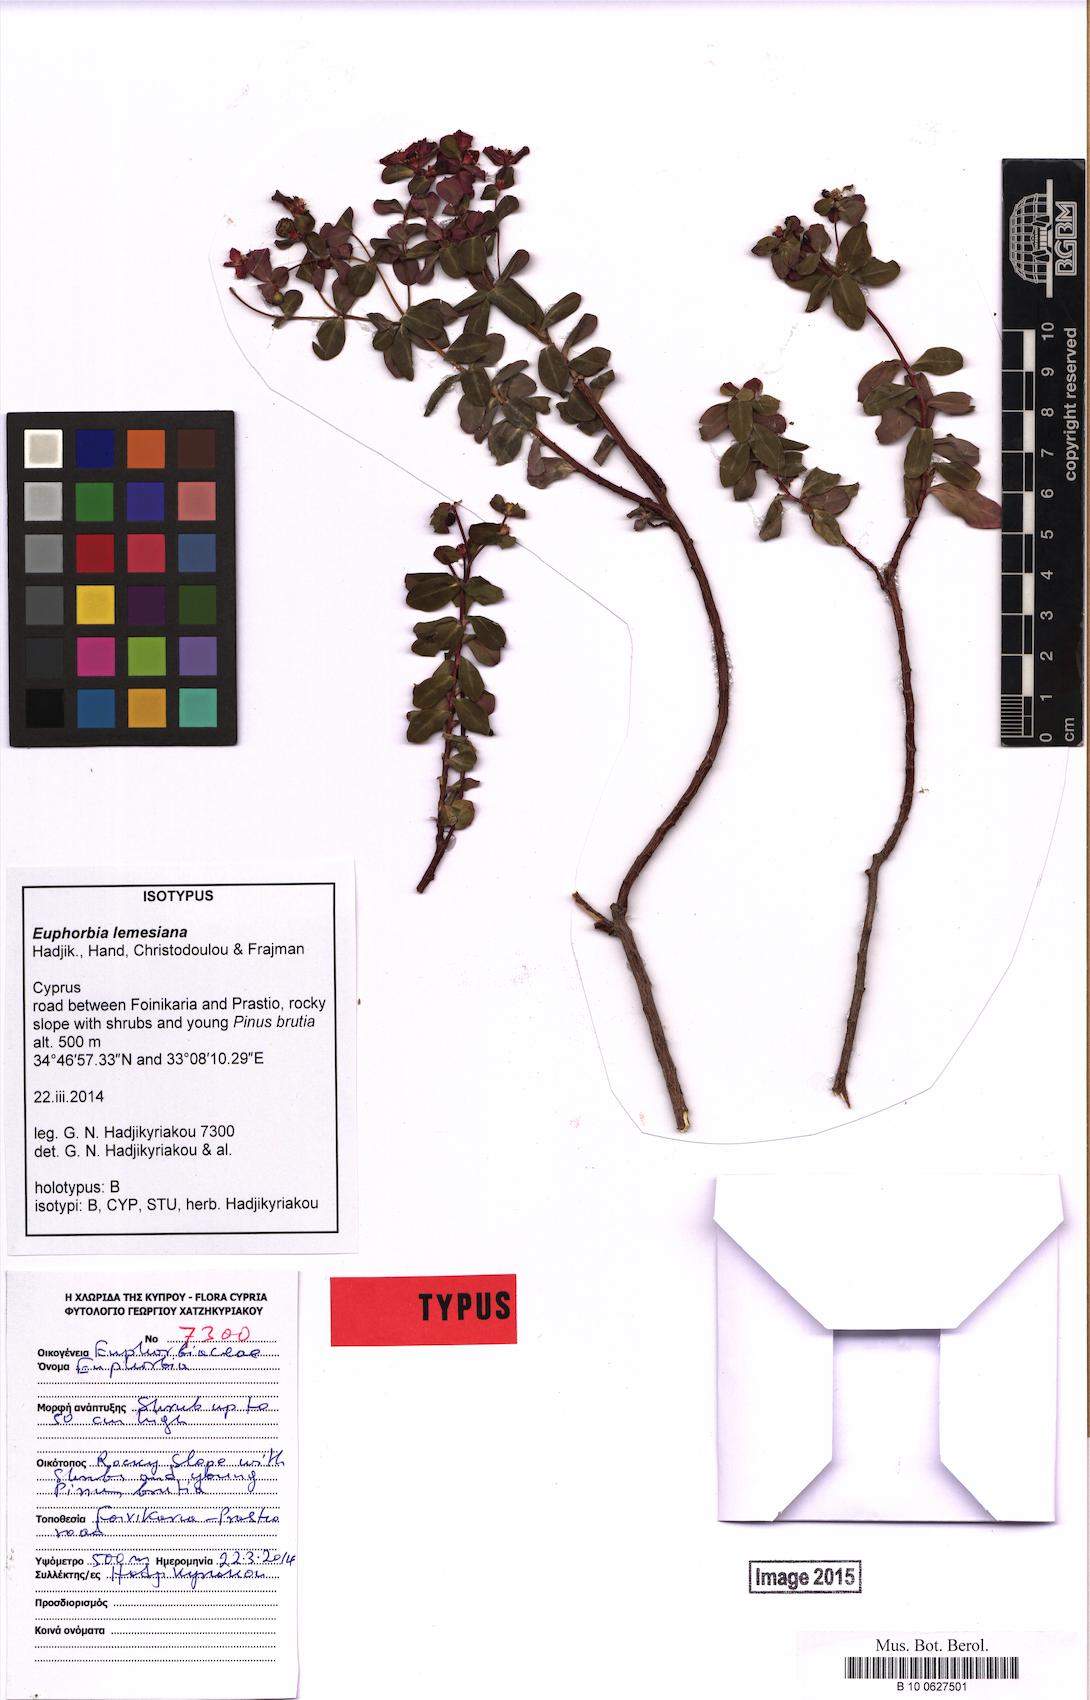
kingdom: Plantae
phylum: Tracheophyta
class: Magnoliopsida
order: Malpighiales
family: Euphorbiaceae
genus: Euphorbia
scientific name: Euphorbia lemesiana
